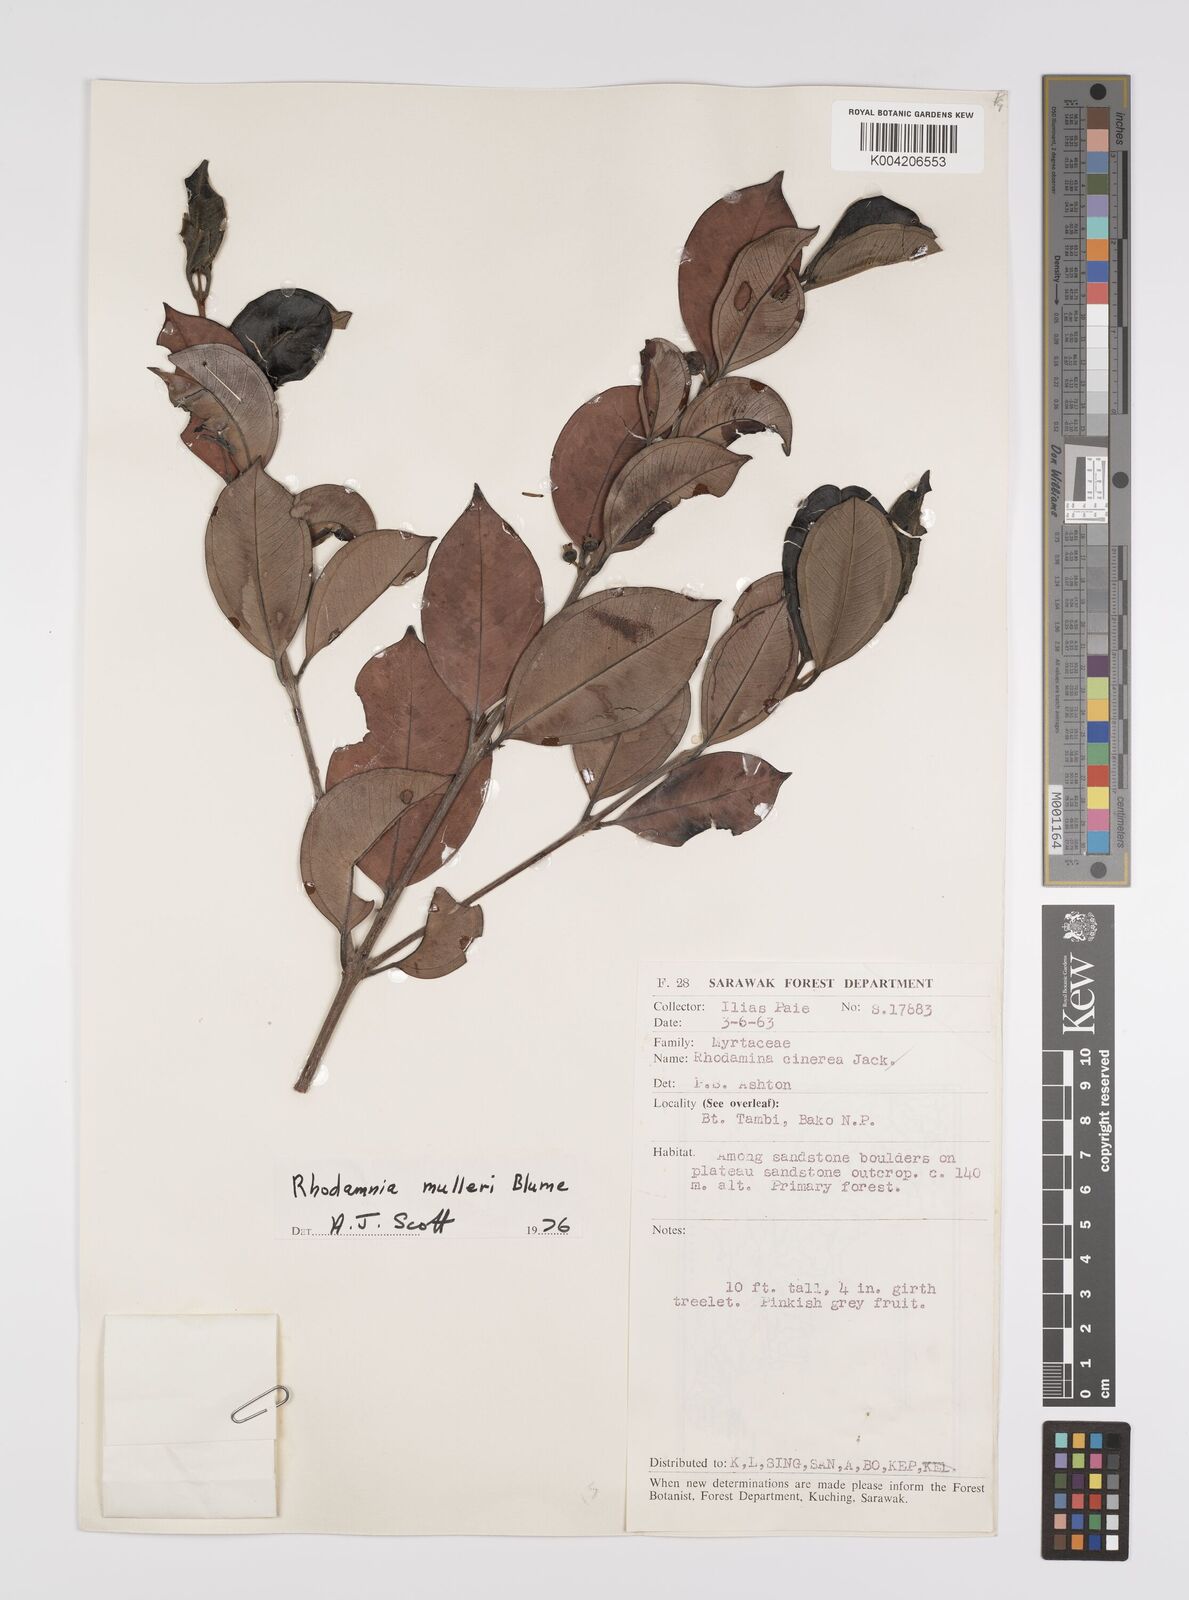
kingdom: Plantae
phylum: Tracheophyta
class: Magnoliopsida
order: Myrtales
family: Myrtaceae
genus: Rhodamnia
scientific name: Rhodamnia mulleri
